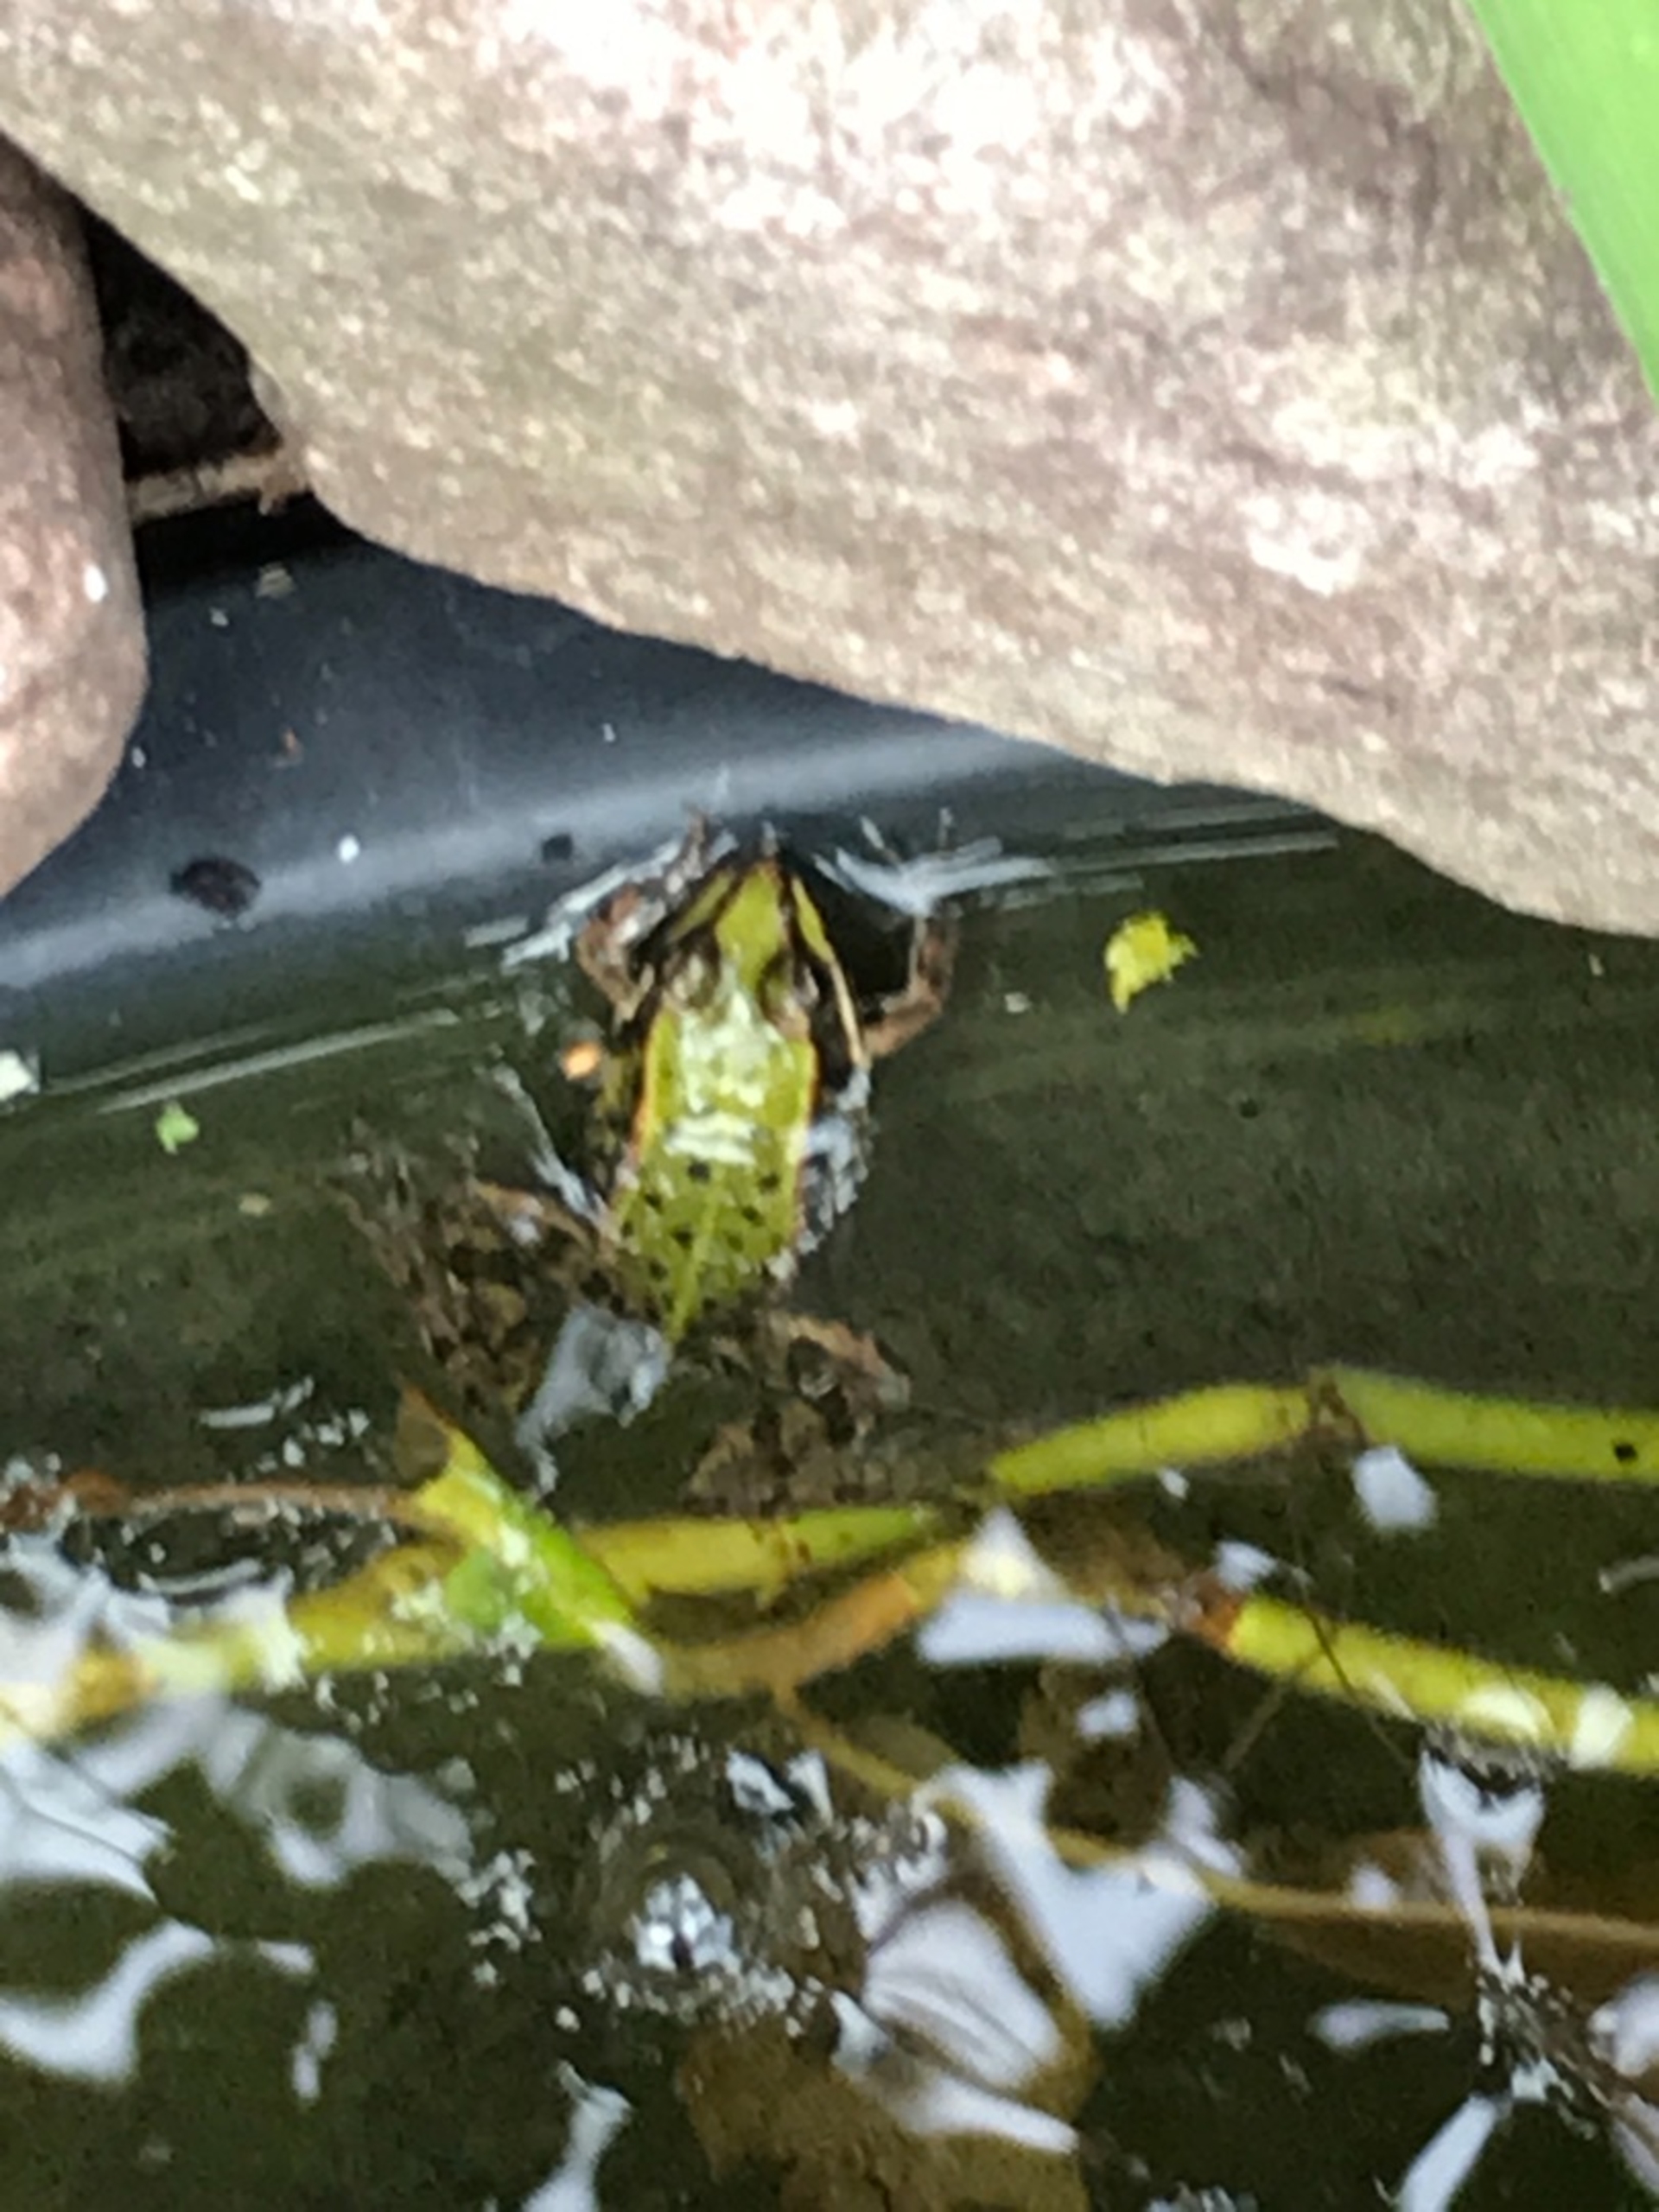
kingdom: Animalia
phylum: Chordata
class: Amphibia
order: Anura
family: Ranidae
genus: Pelophylax
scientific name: Pelophylax lessonae
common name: Grøn frø
